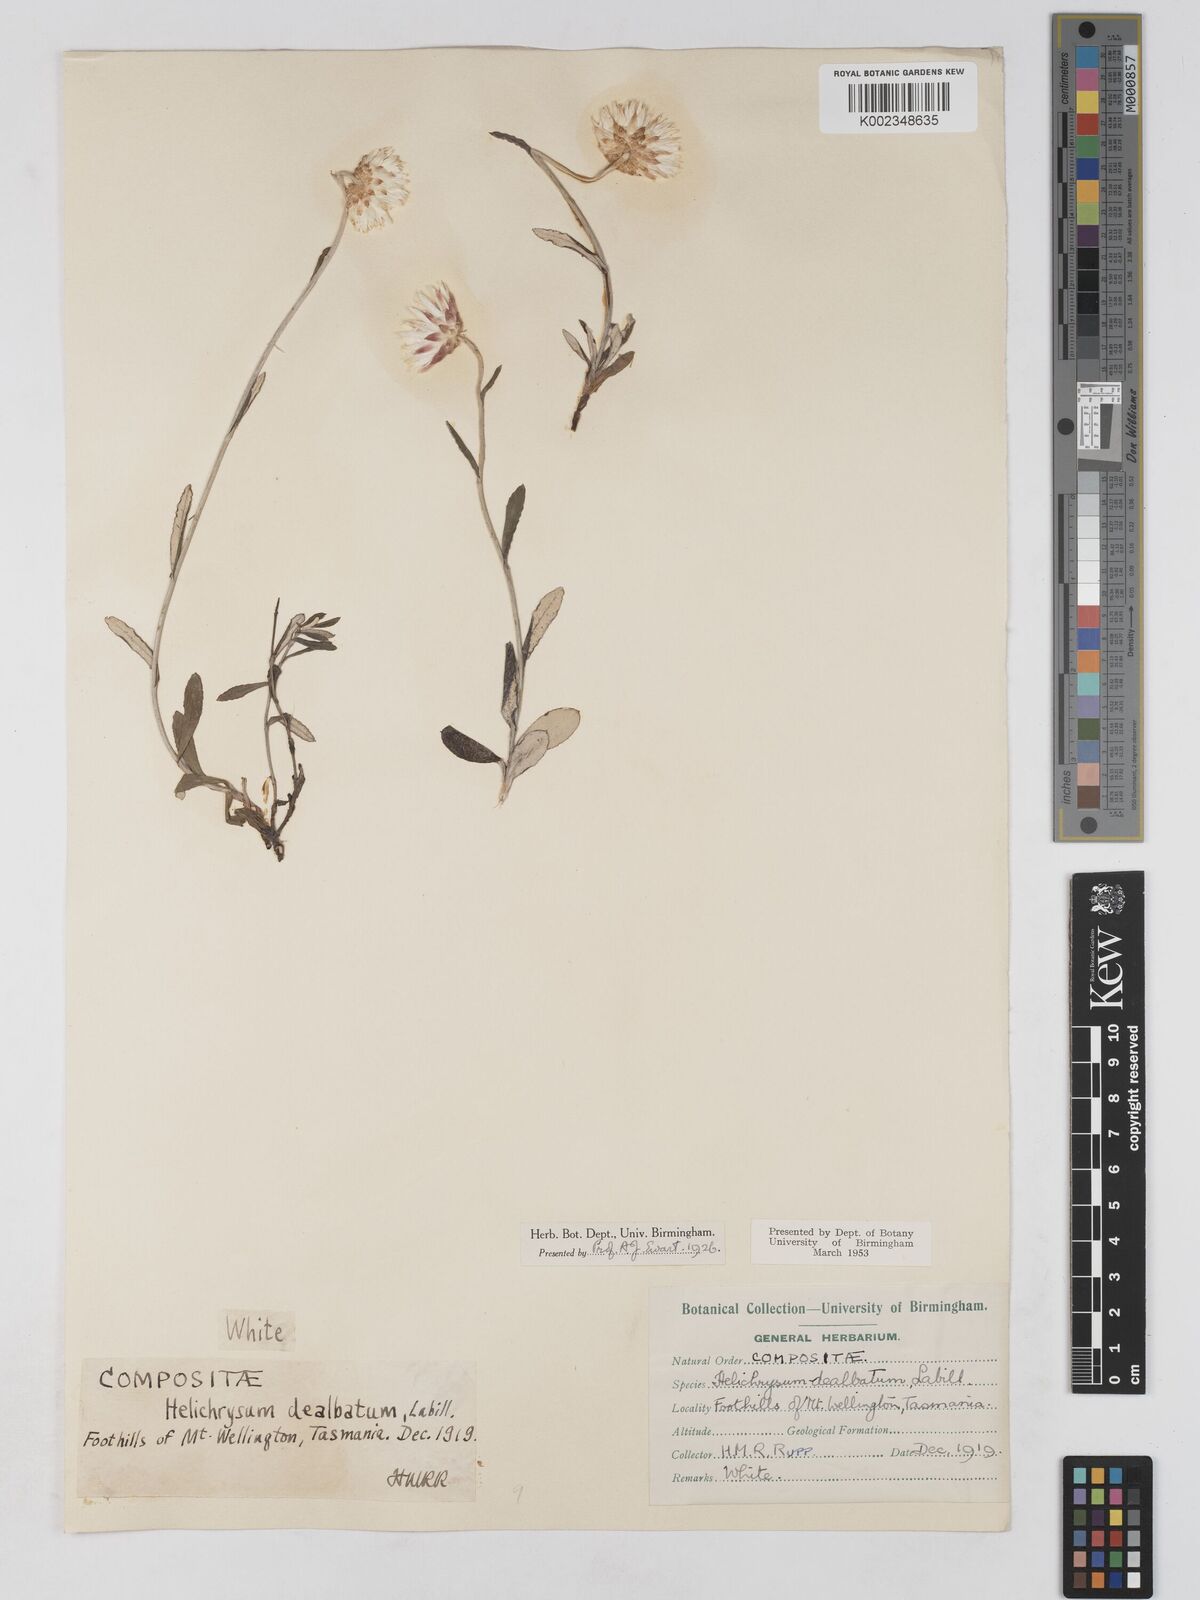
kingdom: Plantae
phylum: Tracheophyta
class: Magnoliopsida
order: Asterales
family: Asteraceae
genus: Argentipallium
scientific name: Argentipallium dealbatum
